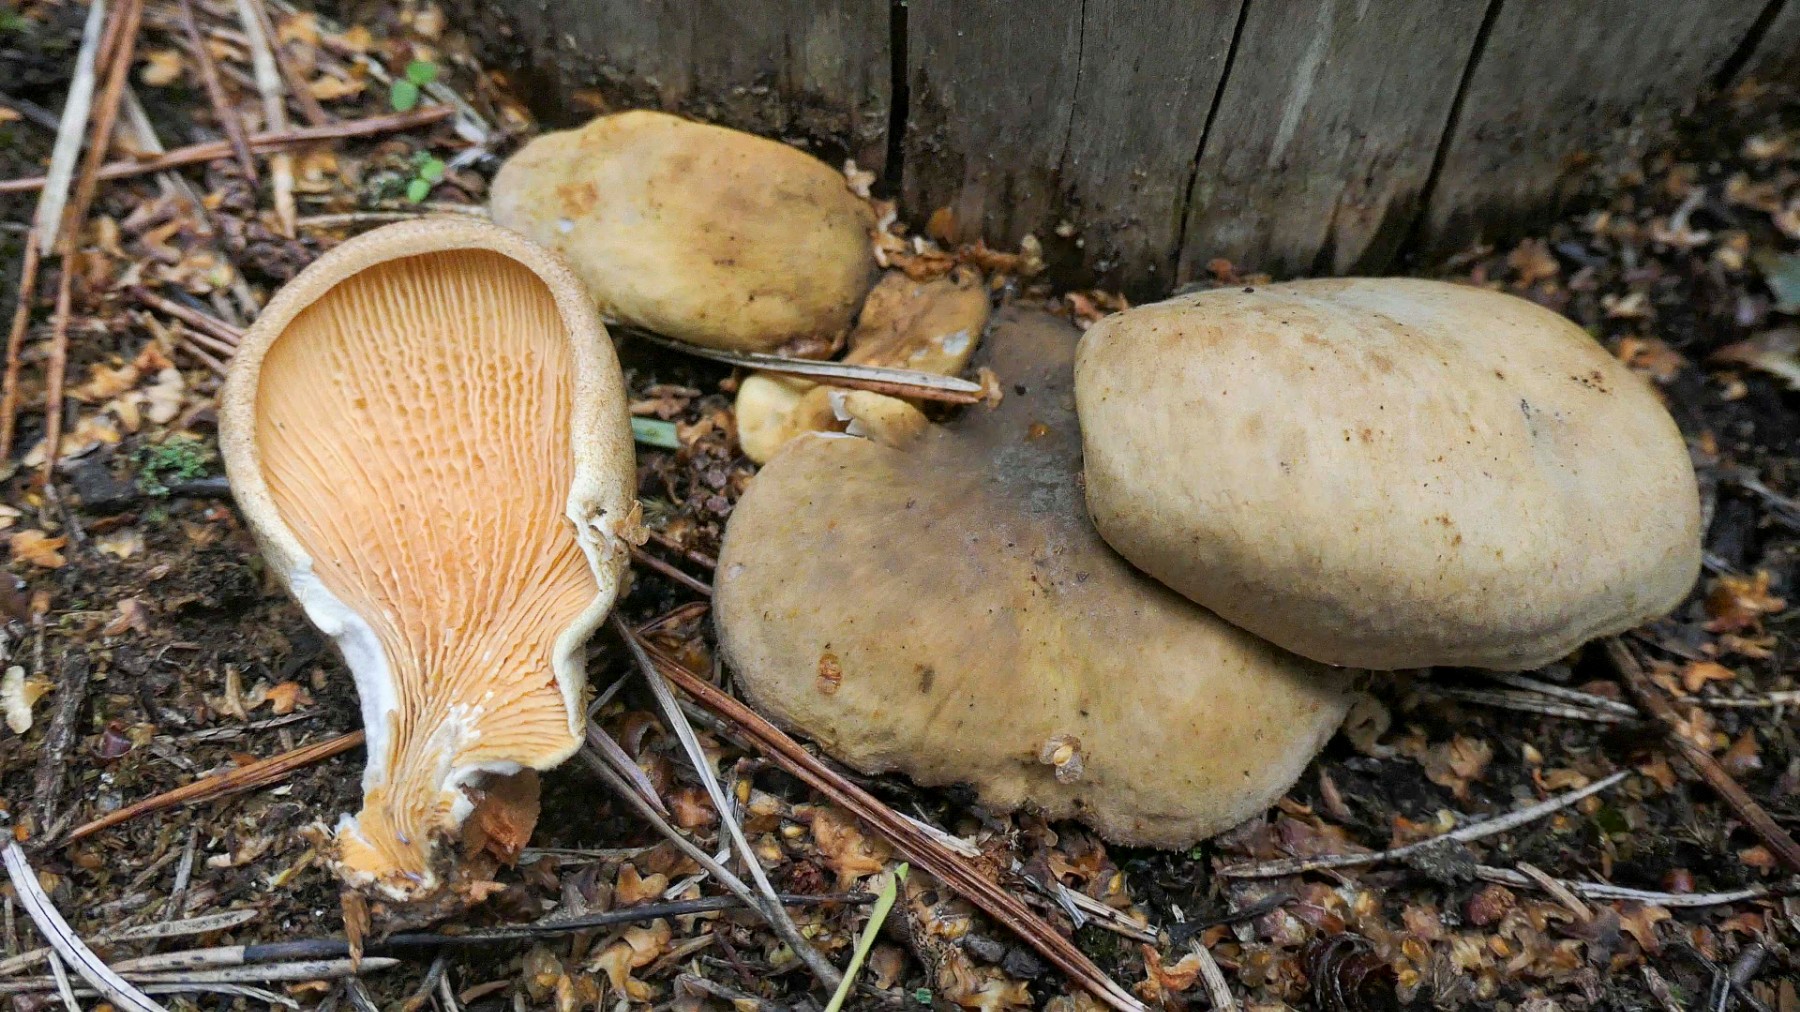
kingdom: Fungi
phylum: Basidiomycota
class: Agaricomycetes
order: Boletales
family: Tapinellaceae
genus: Tapinella
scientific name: Tapinella panuoides
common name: tømmer-viftesvamp
